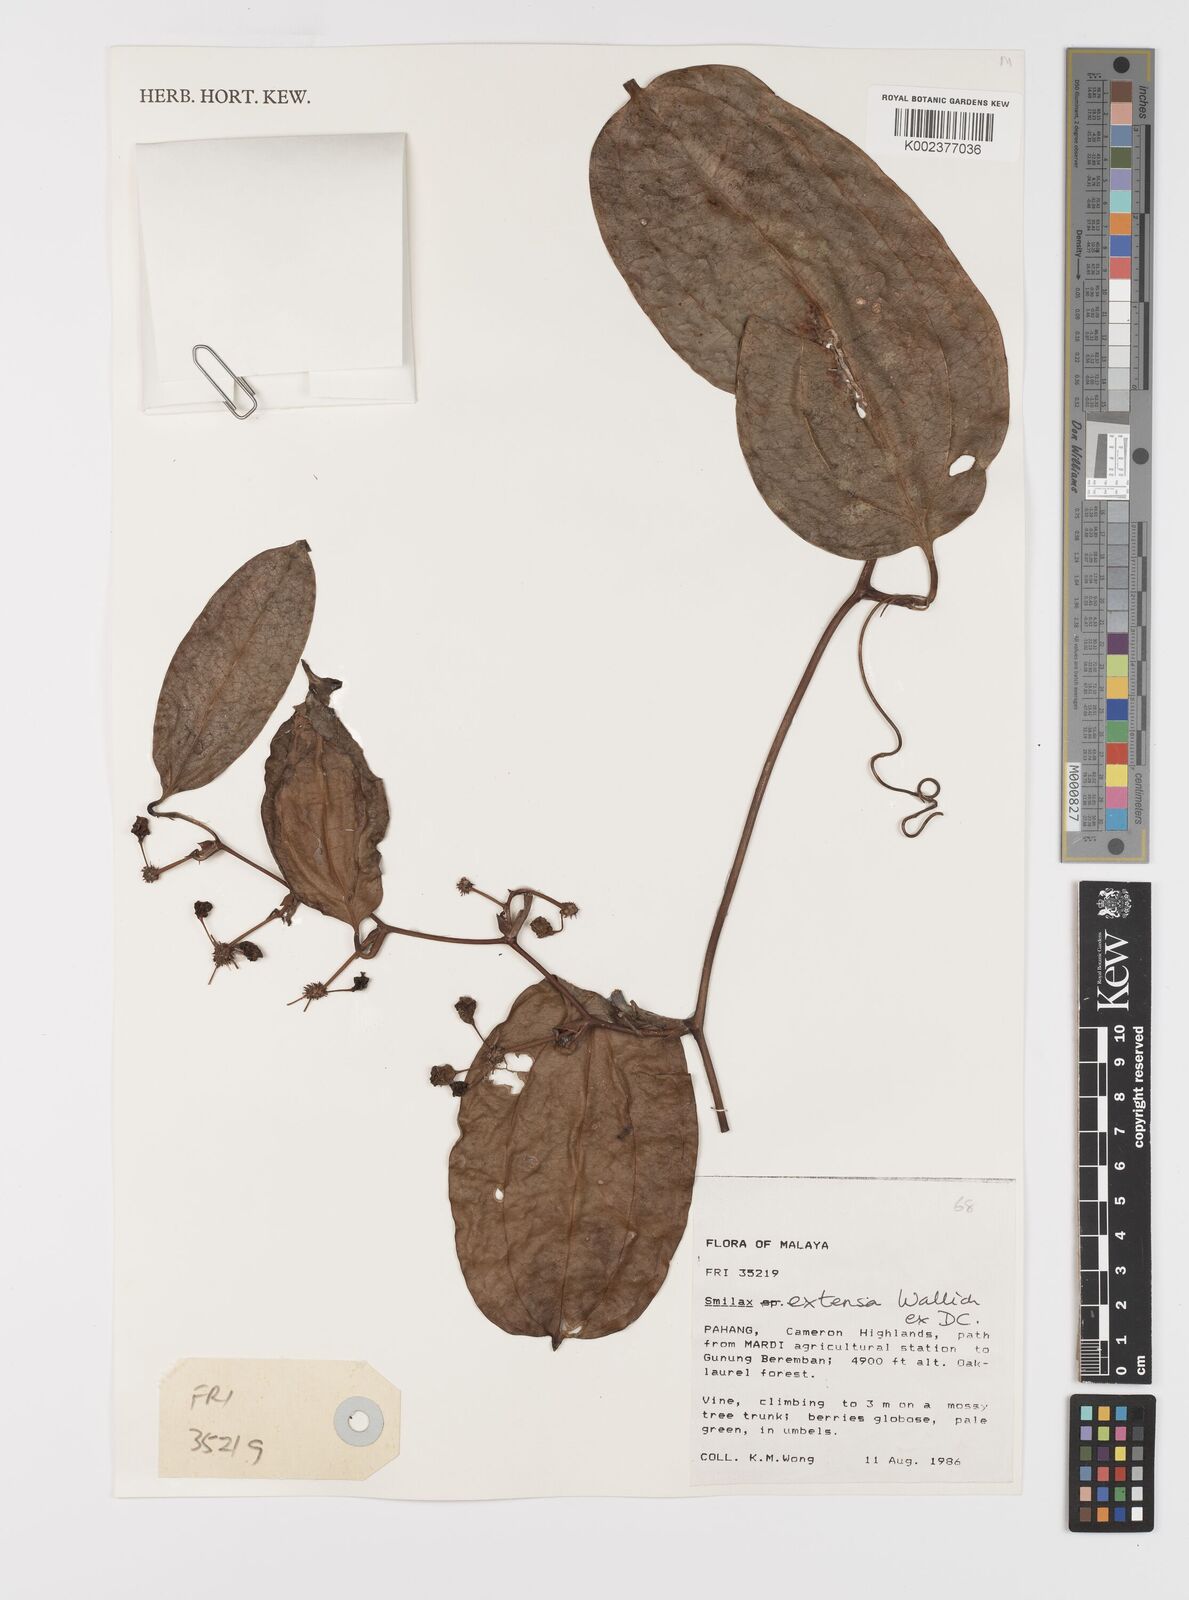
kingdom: Plantae
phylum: Tracheophyta
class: Liliopsida
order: Liliales
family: Smilacaceae
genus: Smilax
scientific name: Smilax extensa
